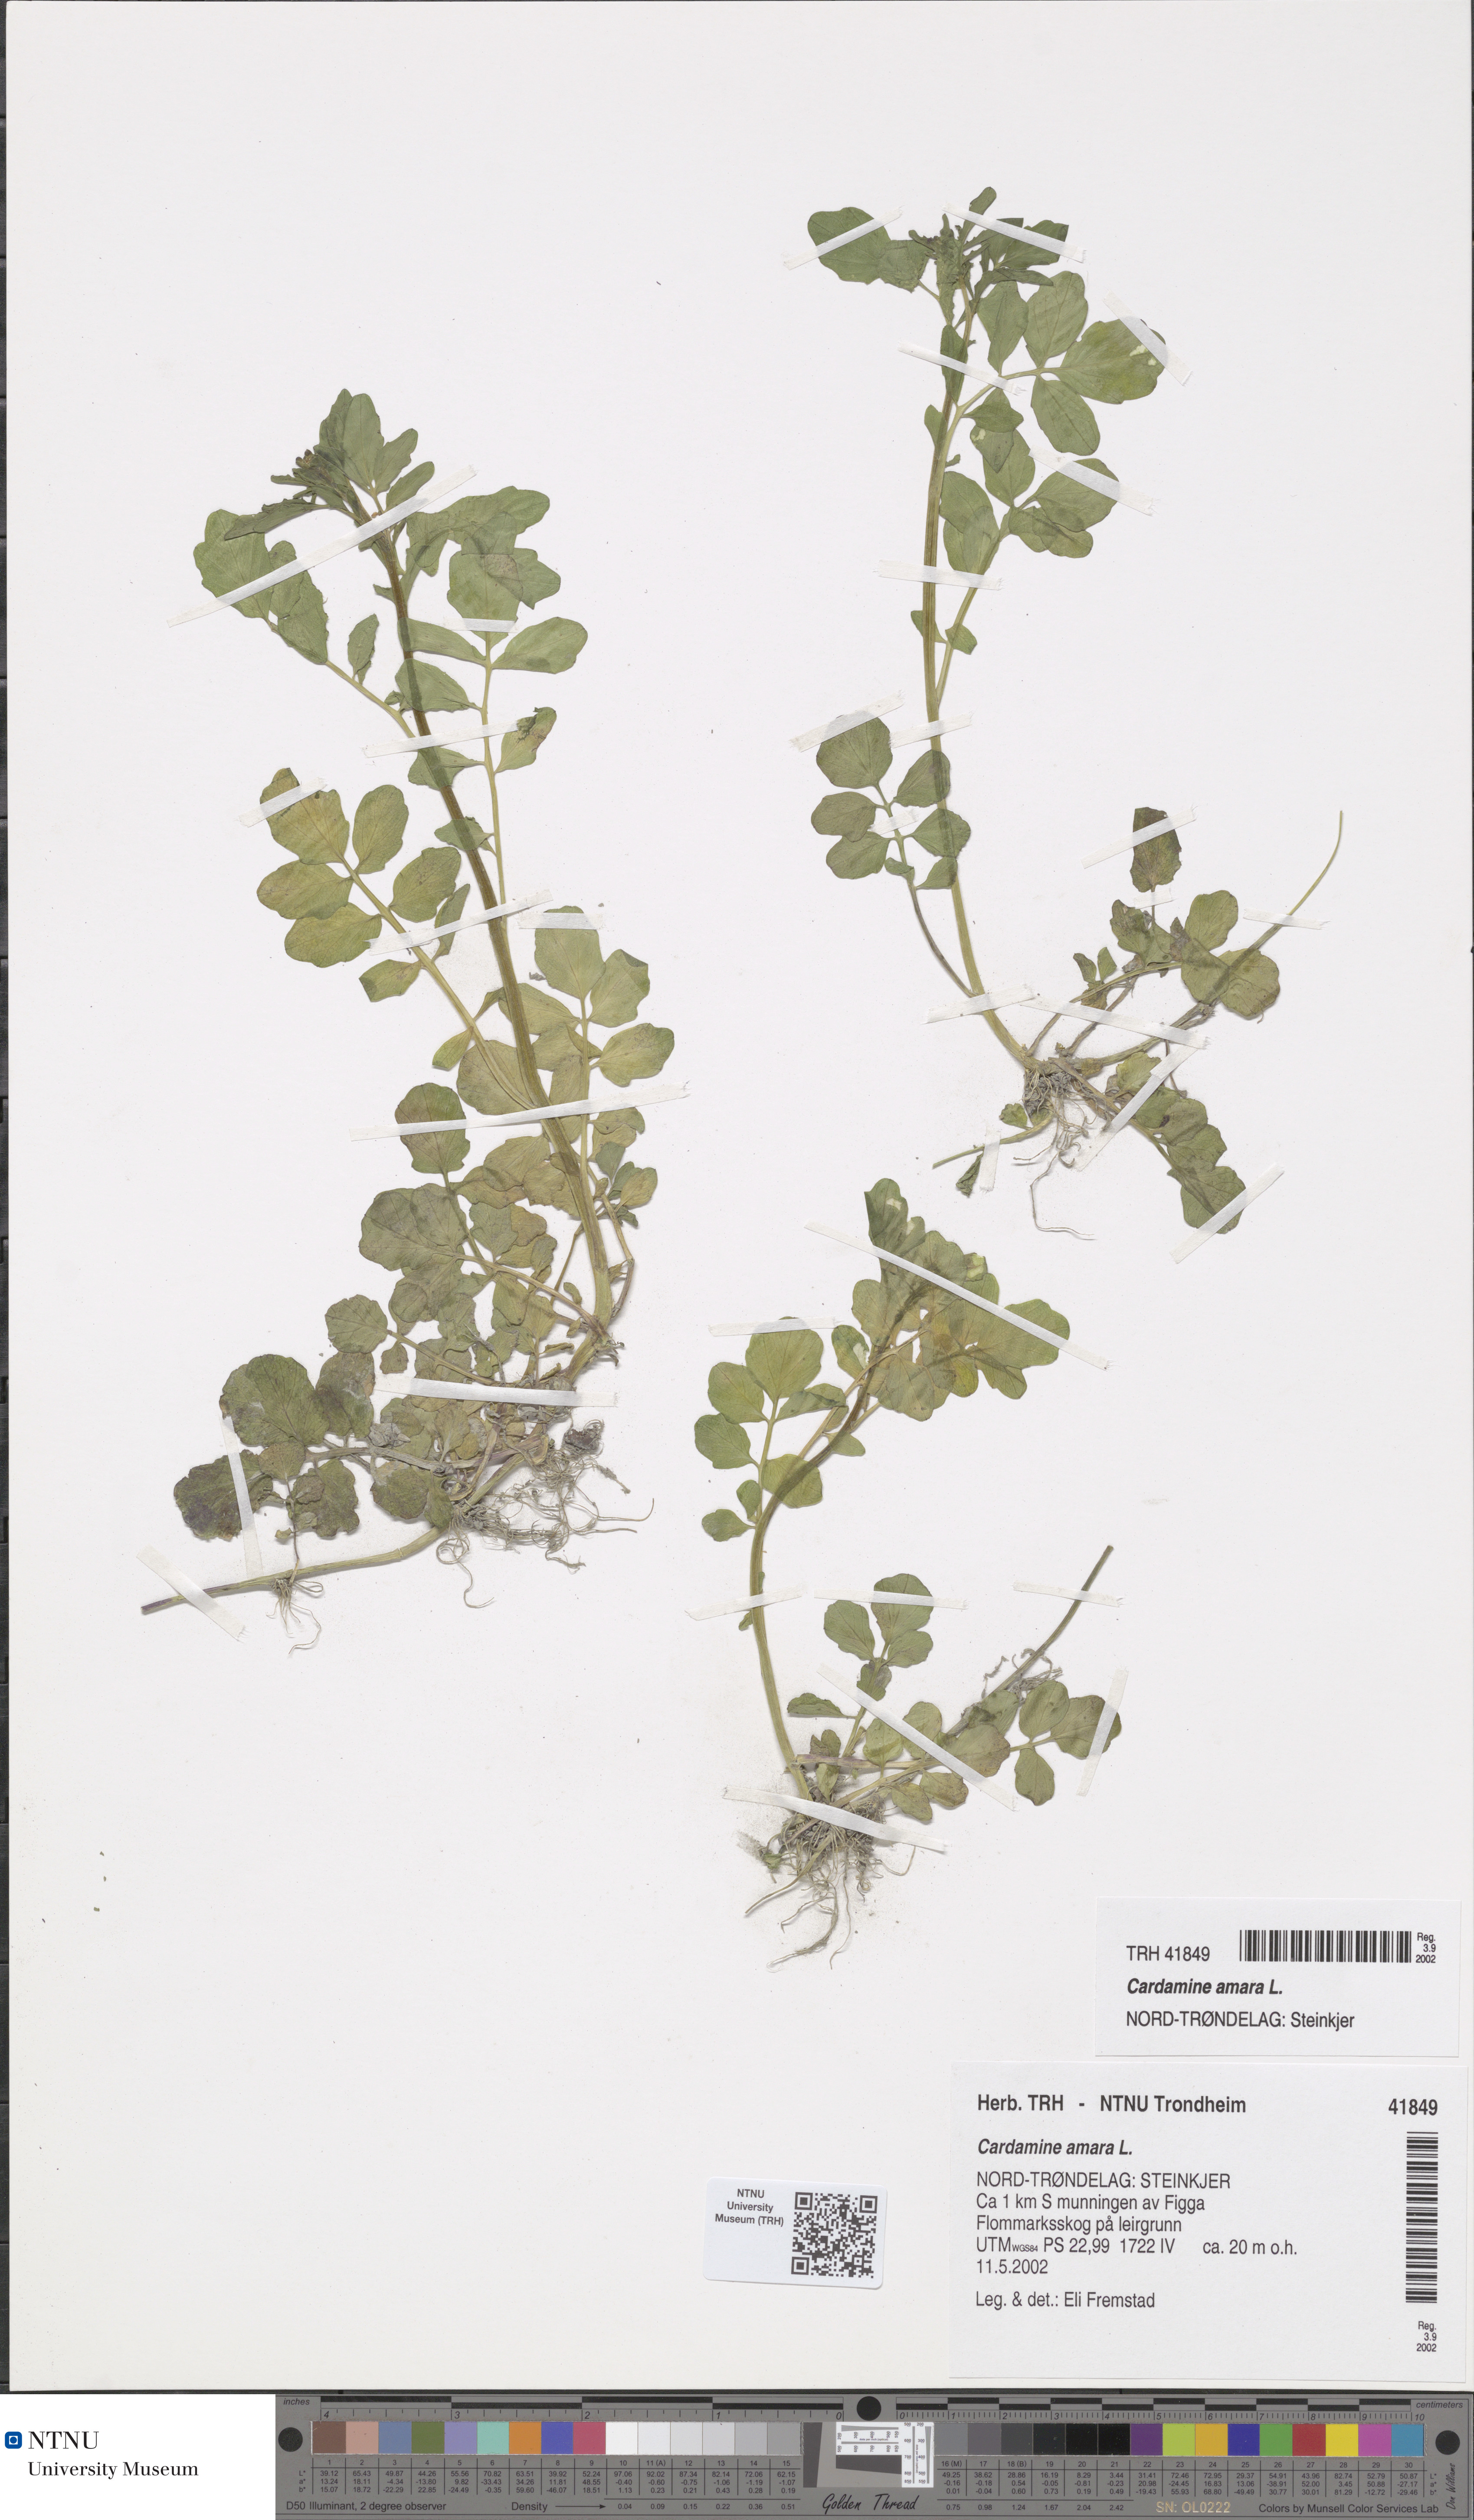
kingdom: Plantae
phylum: Tracheophyta
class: Magnoliopsida
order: Brassicales
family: Brassicaceae
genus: Cardamine
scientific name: Cardamine amara
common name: Large bitter-cress
